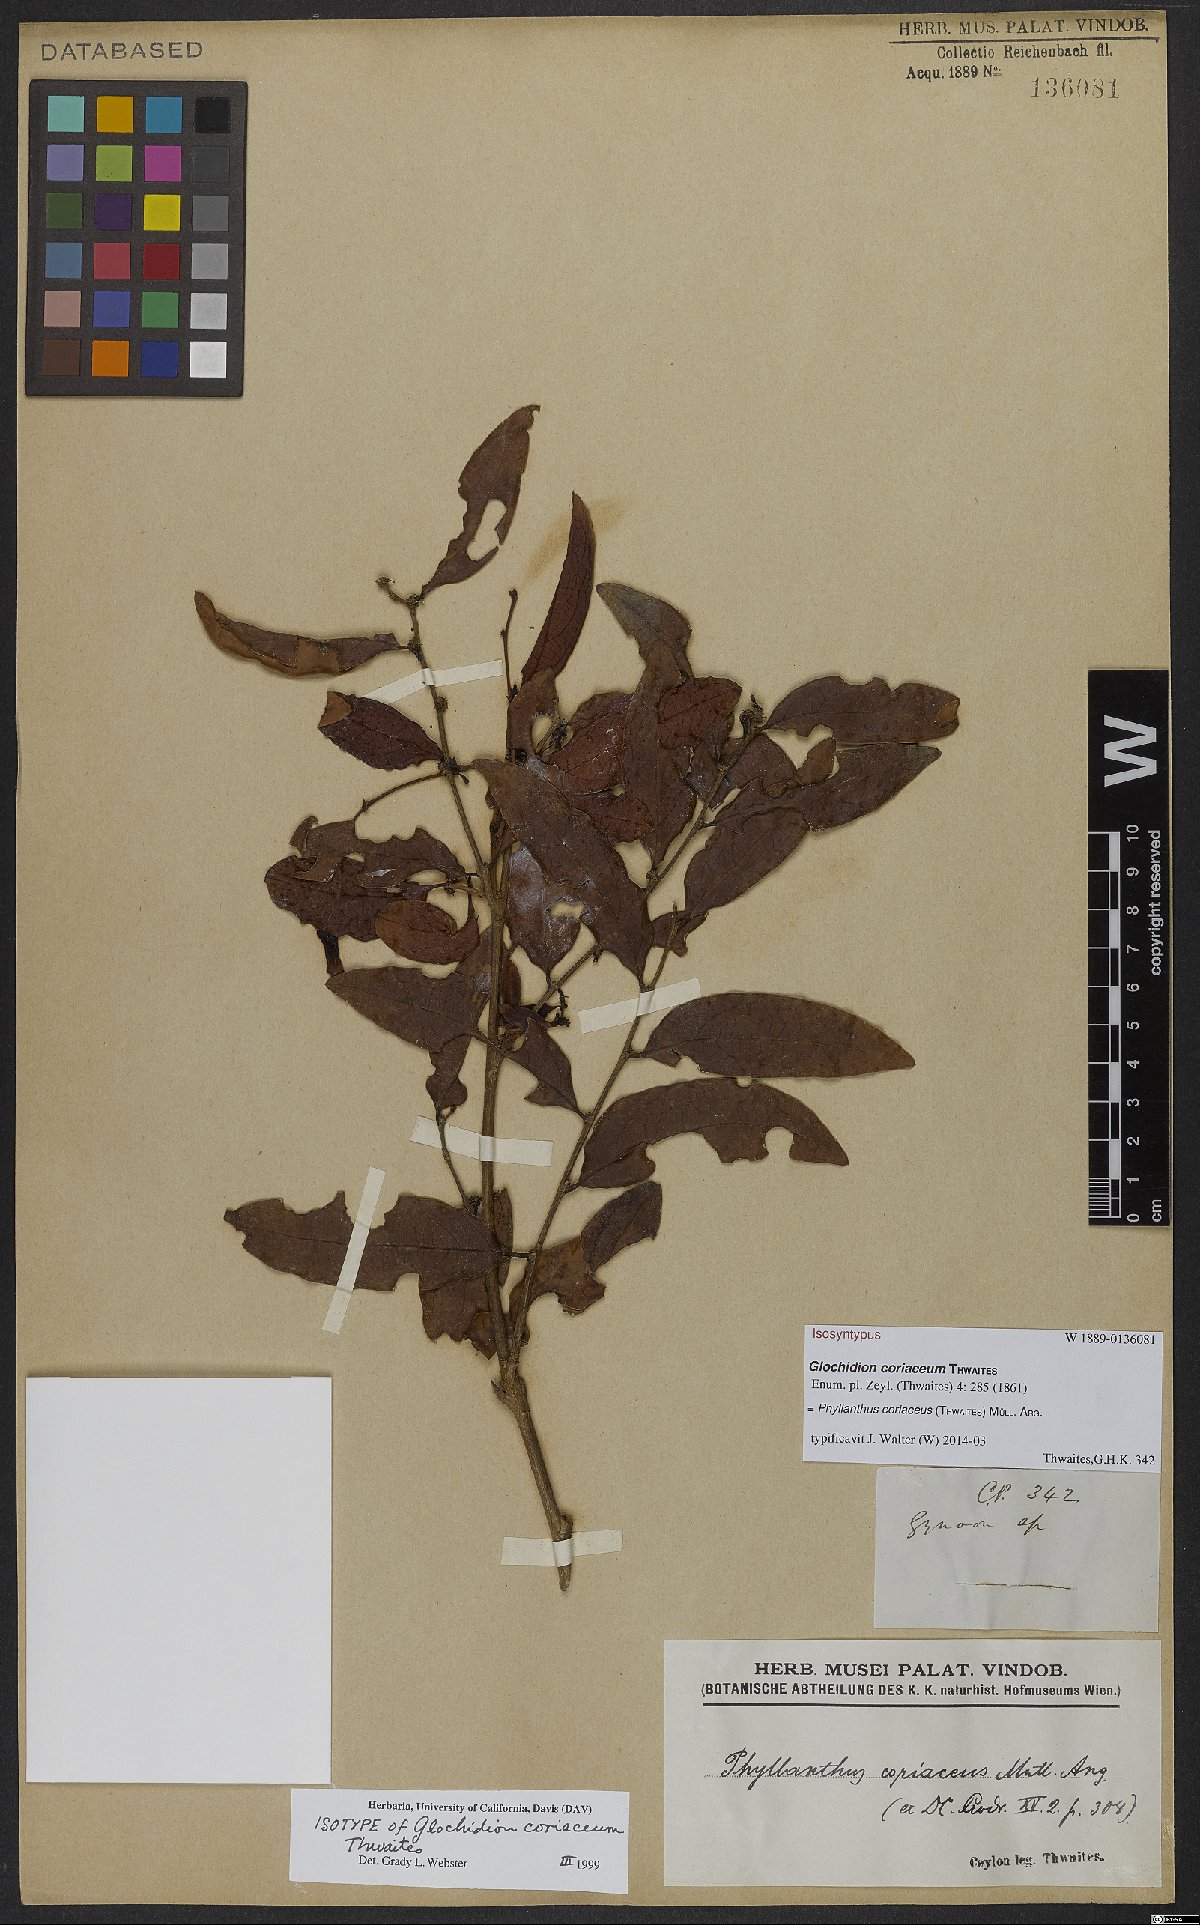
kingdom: Plantae
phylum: Tracheophyta
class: Magnoliopsida
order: Malpighiales
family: Phyllanthaceae
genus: Glochidion
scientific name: Glochidion coriaceum
